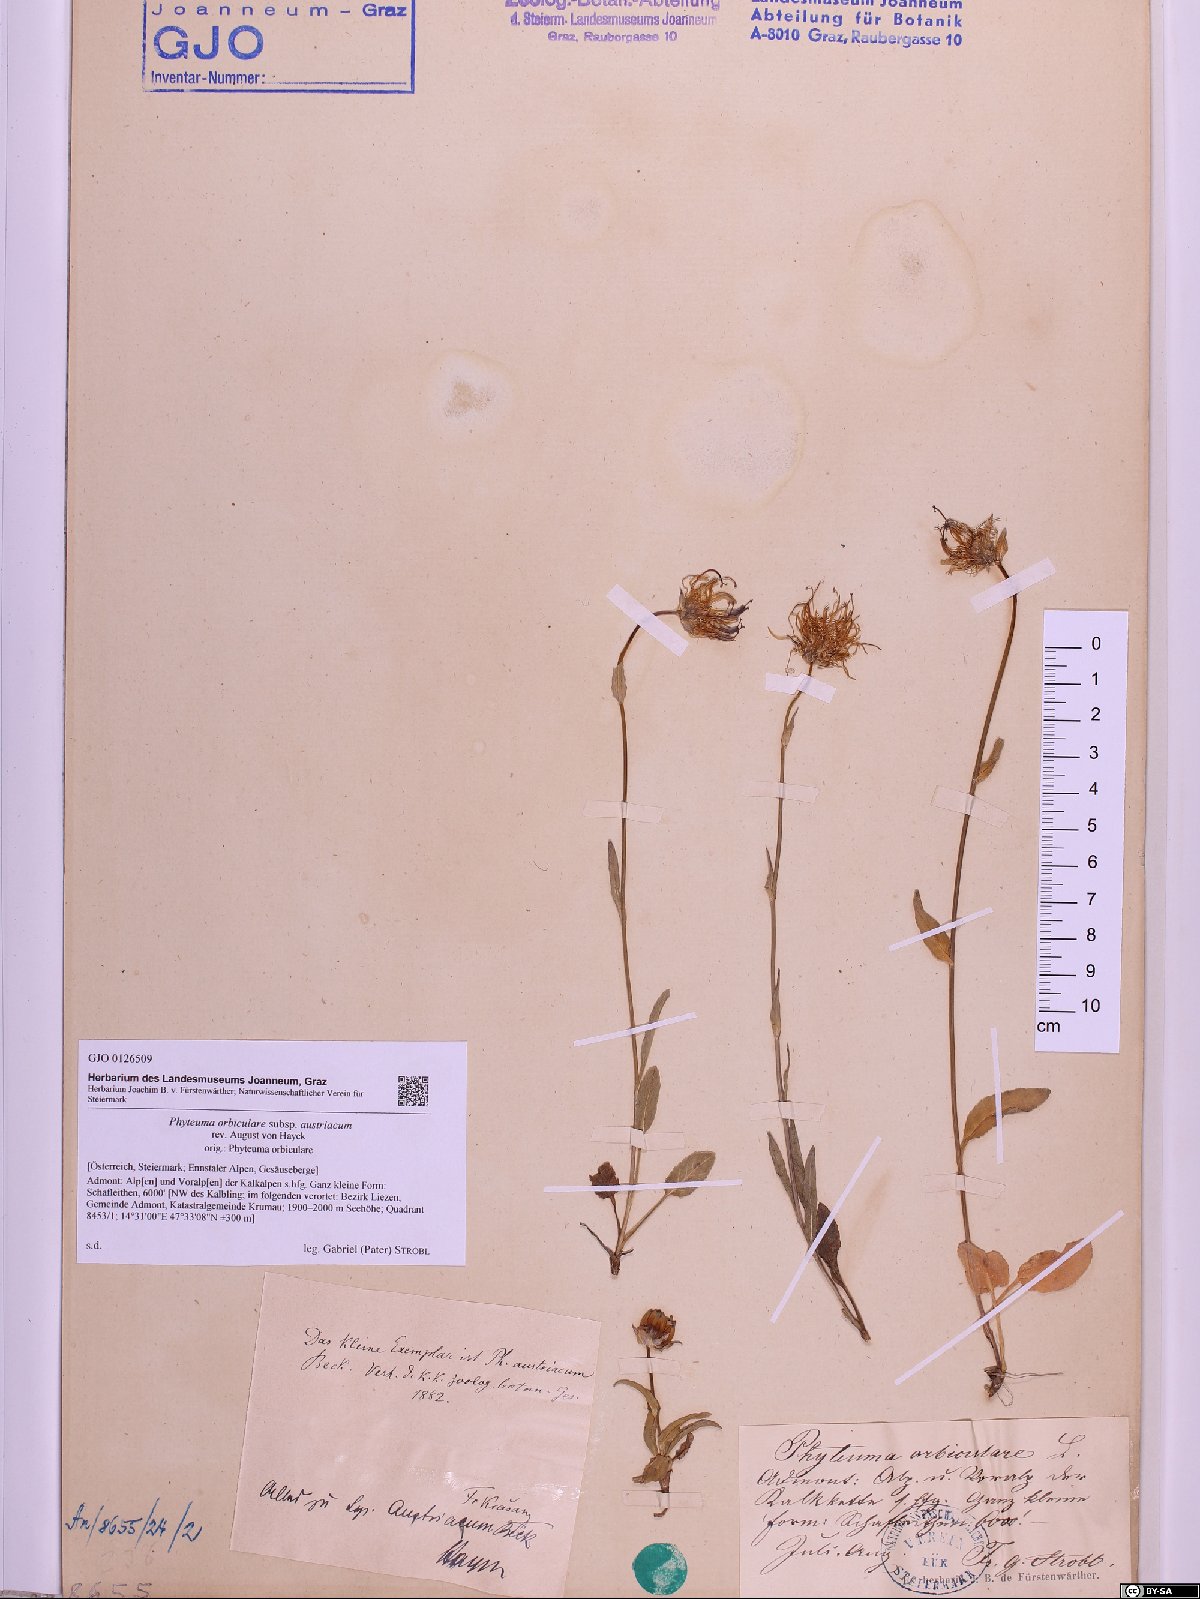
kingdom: Plantae
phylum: Tracheophyta
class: Magnoliopsida
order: Asterales
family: Campanulaceae
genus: Phyteuma
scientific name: Phyteuma orbiculare
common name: Round-headed rampion
